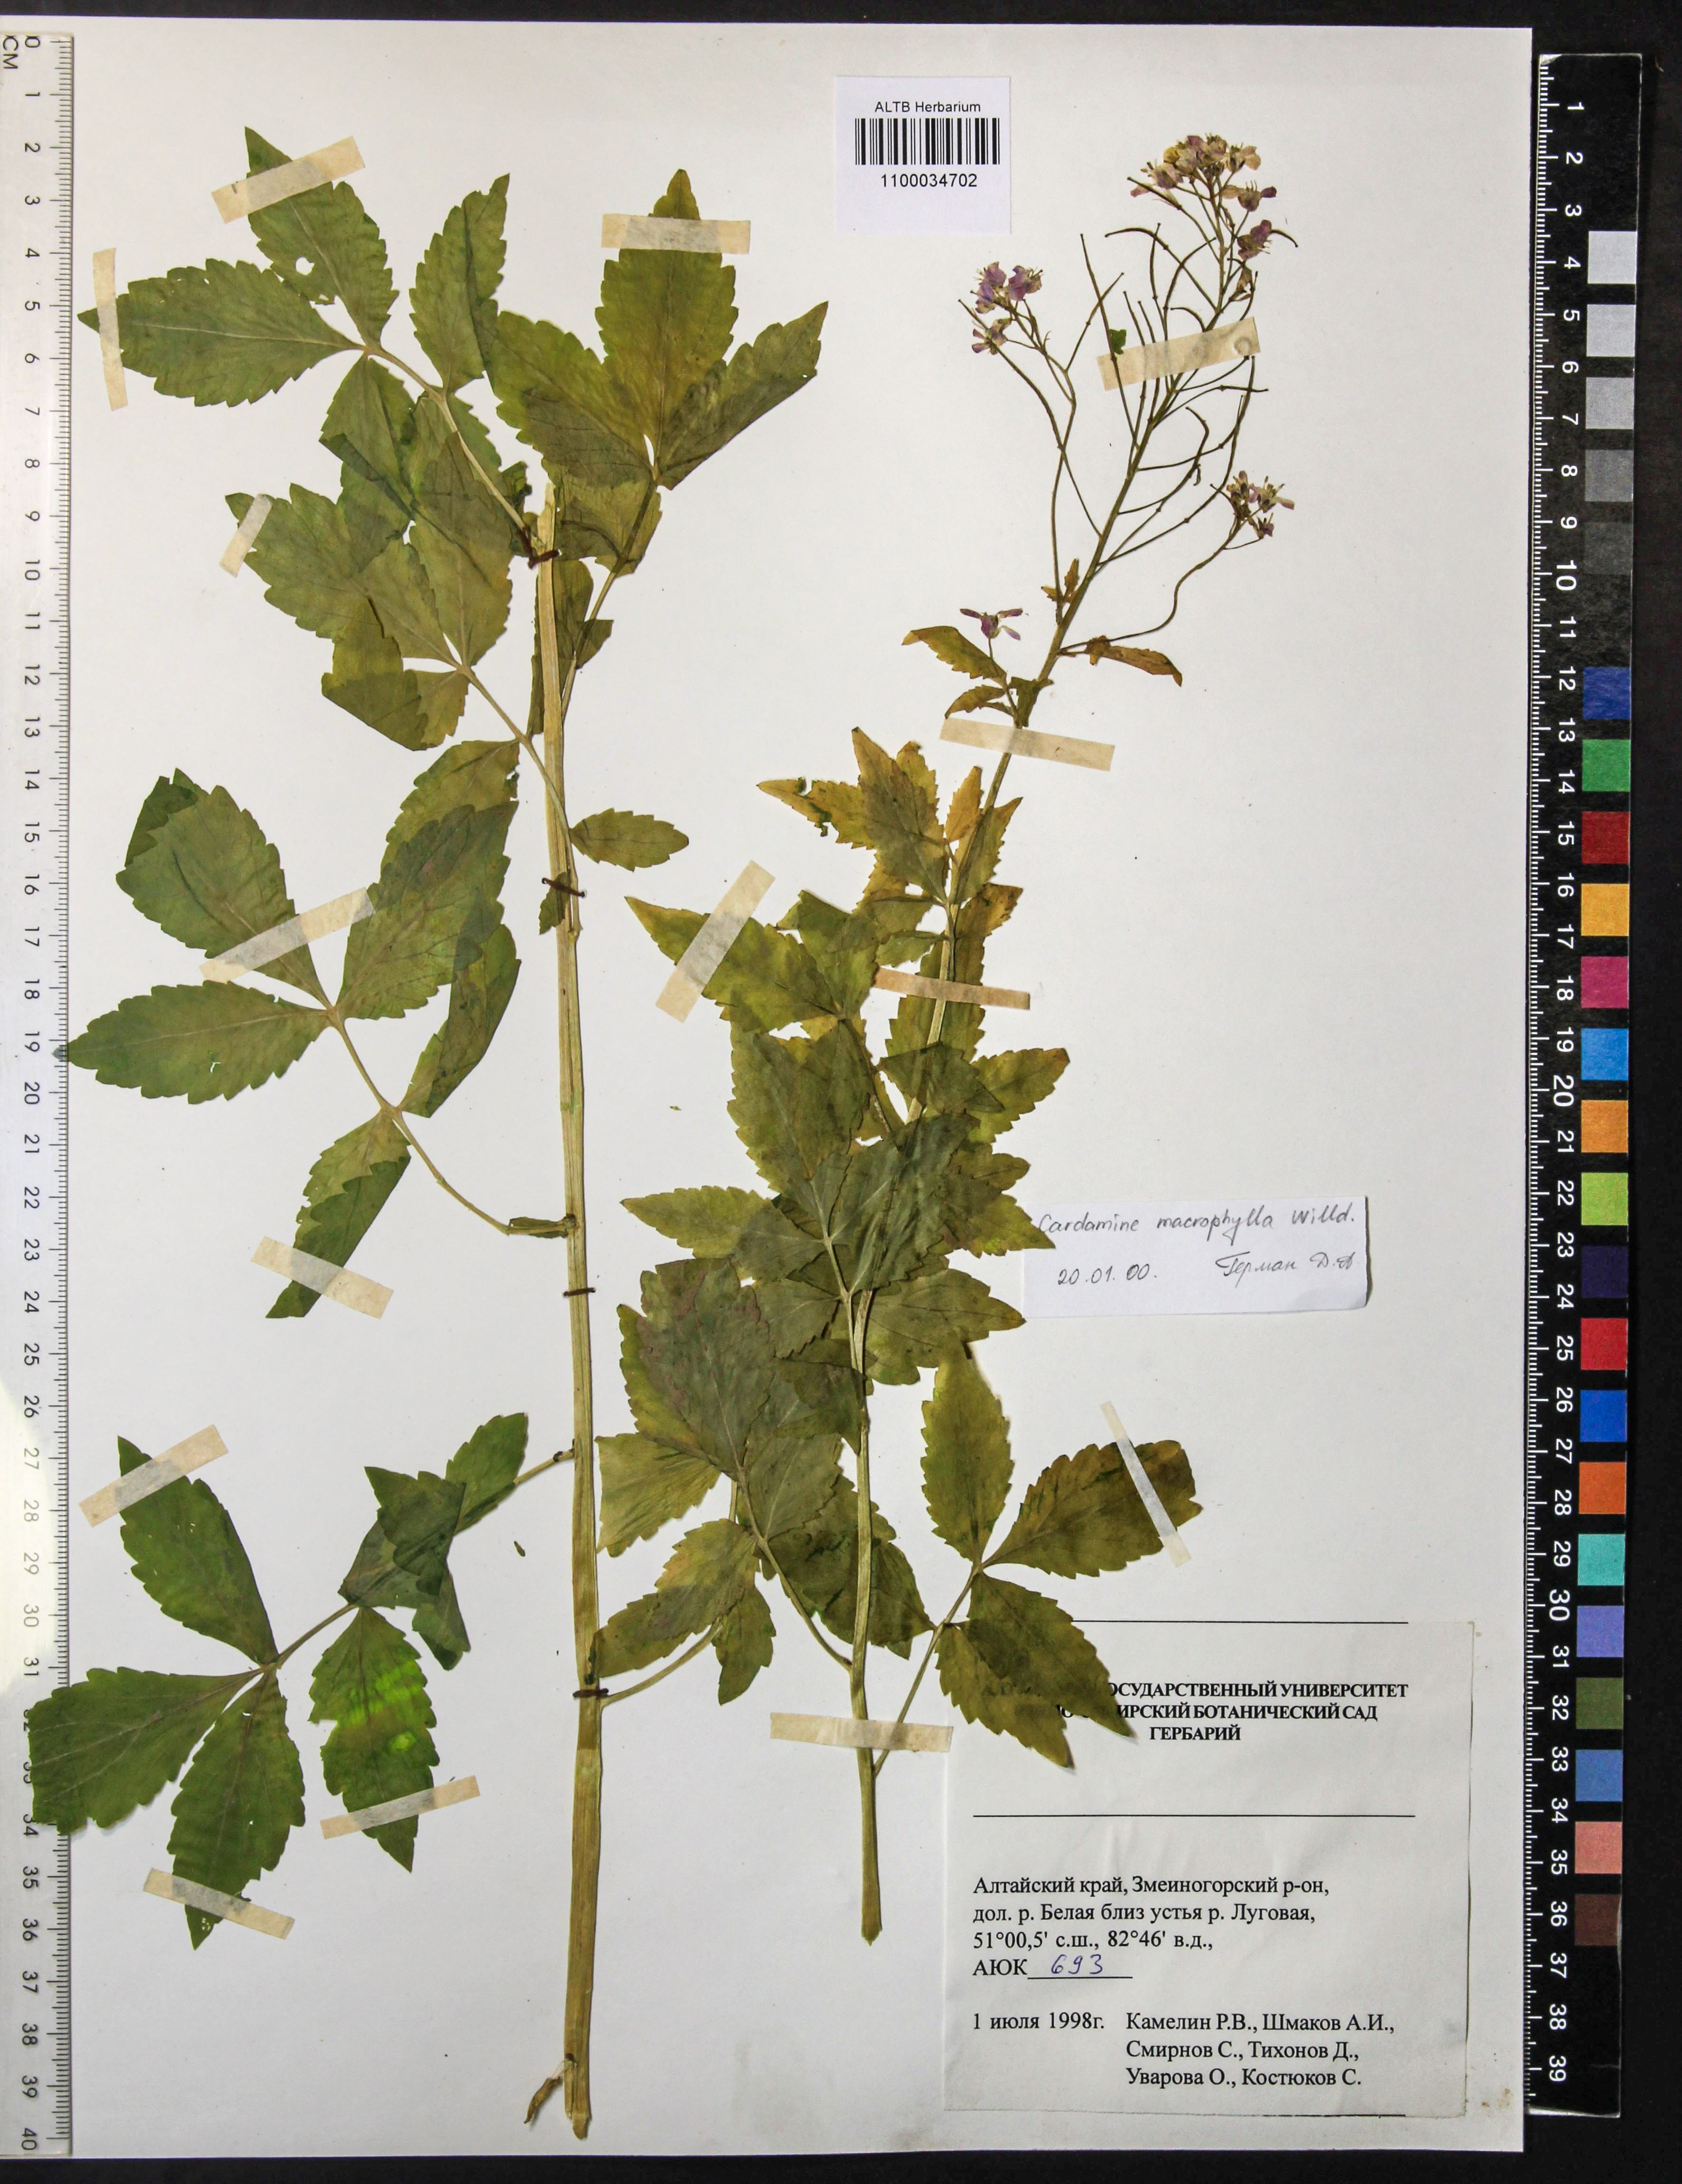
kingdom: Plantae
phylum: Tracheophyta
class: Magnoliopsida
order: Brassicales
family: Brassicaceae
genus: Cardamine
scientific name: Cardamine macrophylla
